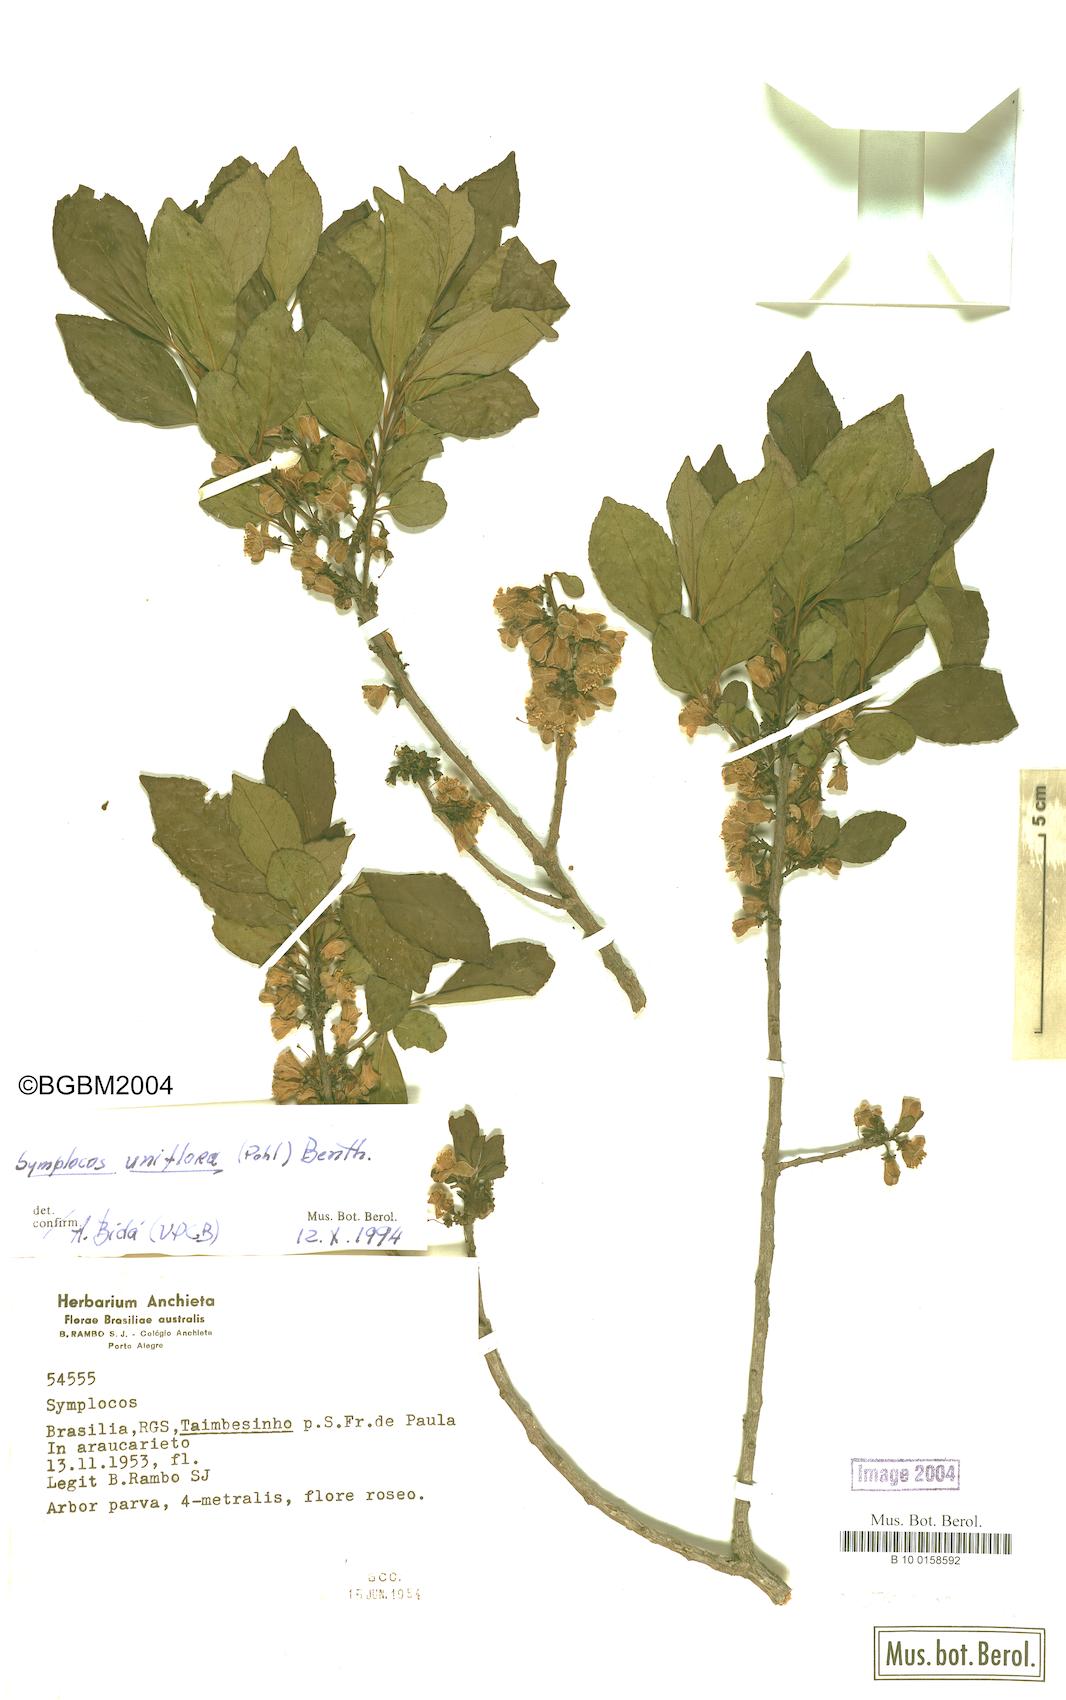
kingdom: Plantae
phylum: Tracheophyta
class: Magnoliopsida
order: Ericales
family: Symplocaceae
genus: Symplocos
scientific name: Symplocos uniflora
